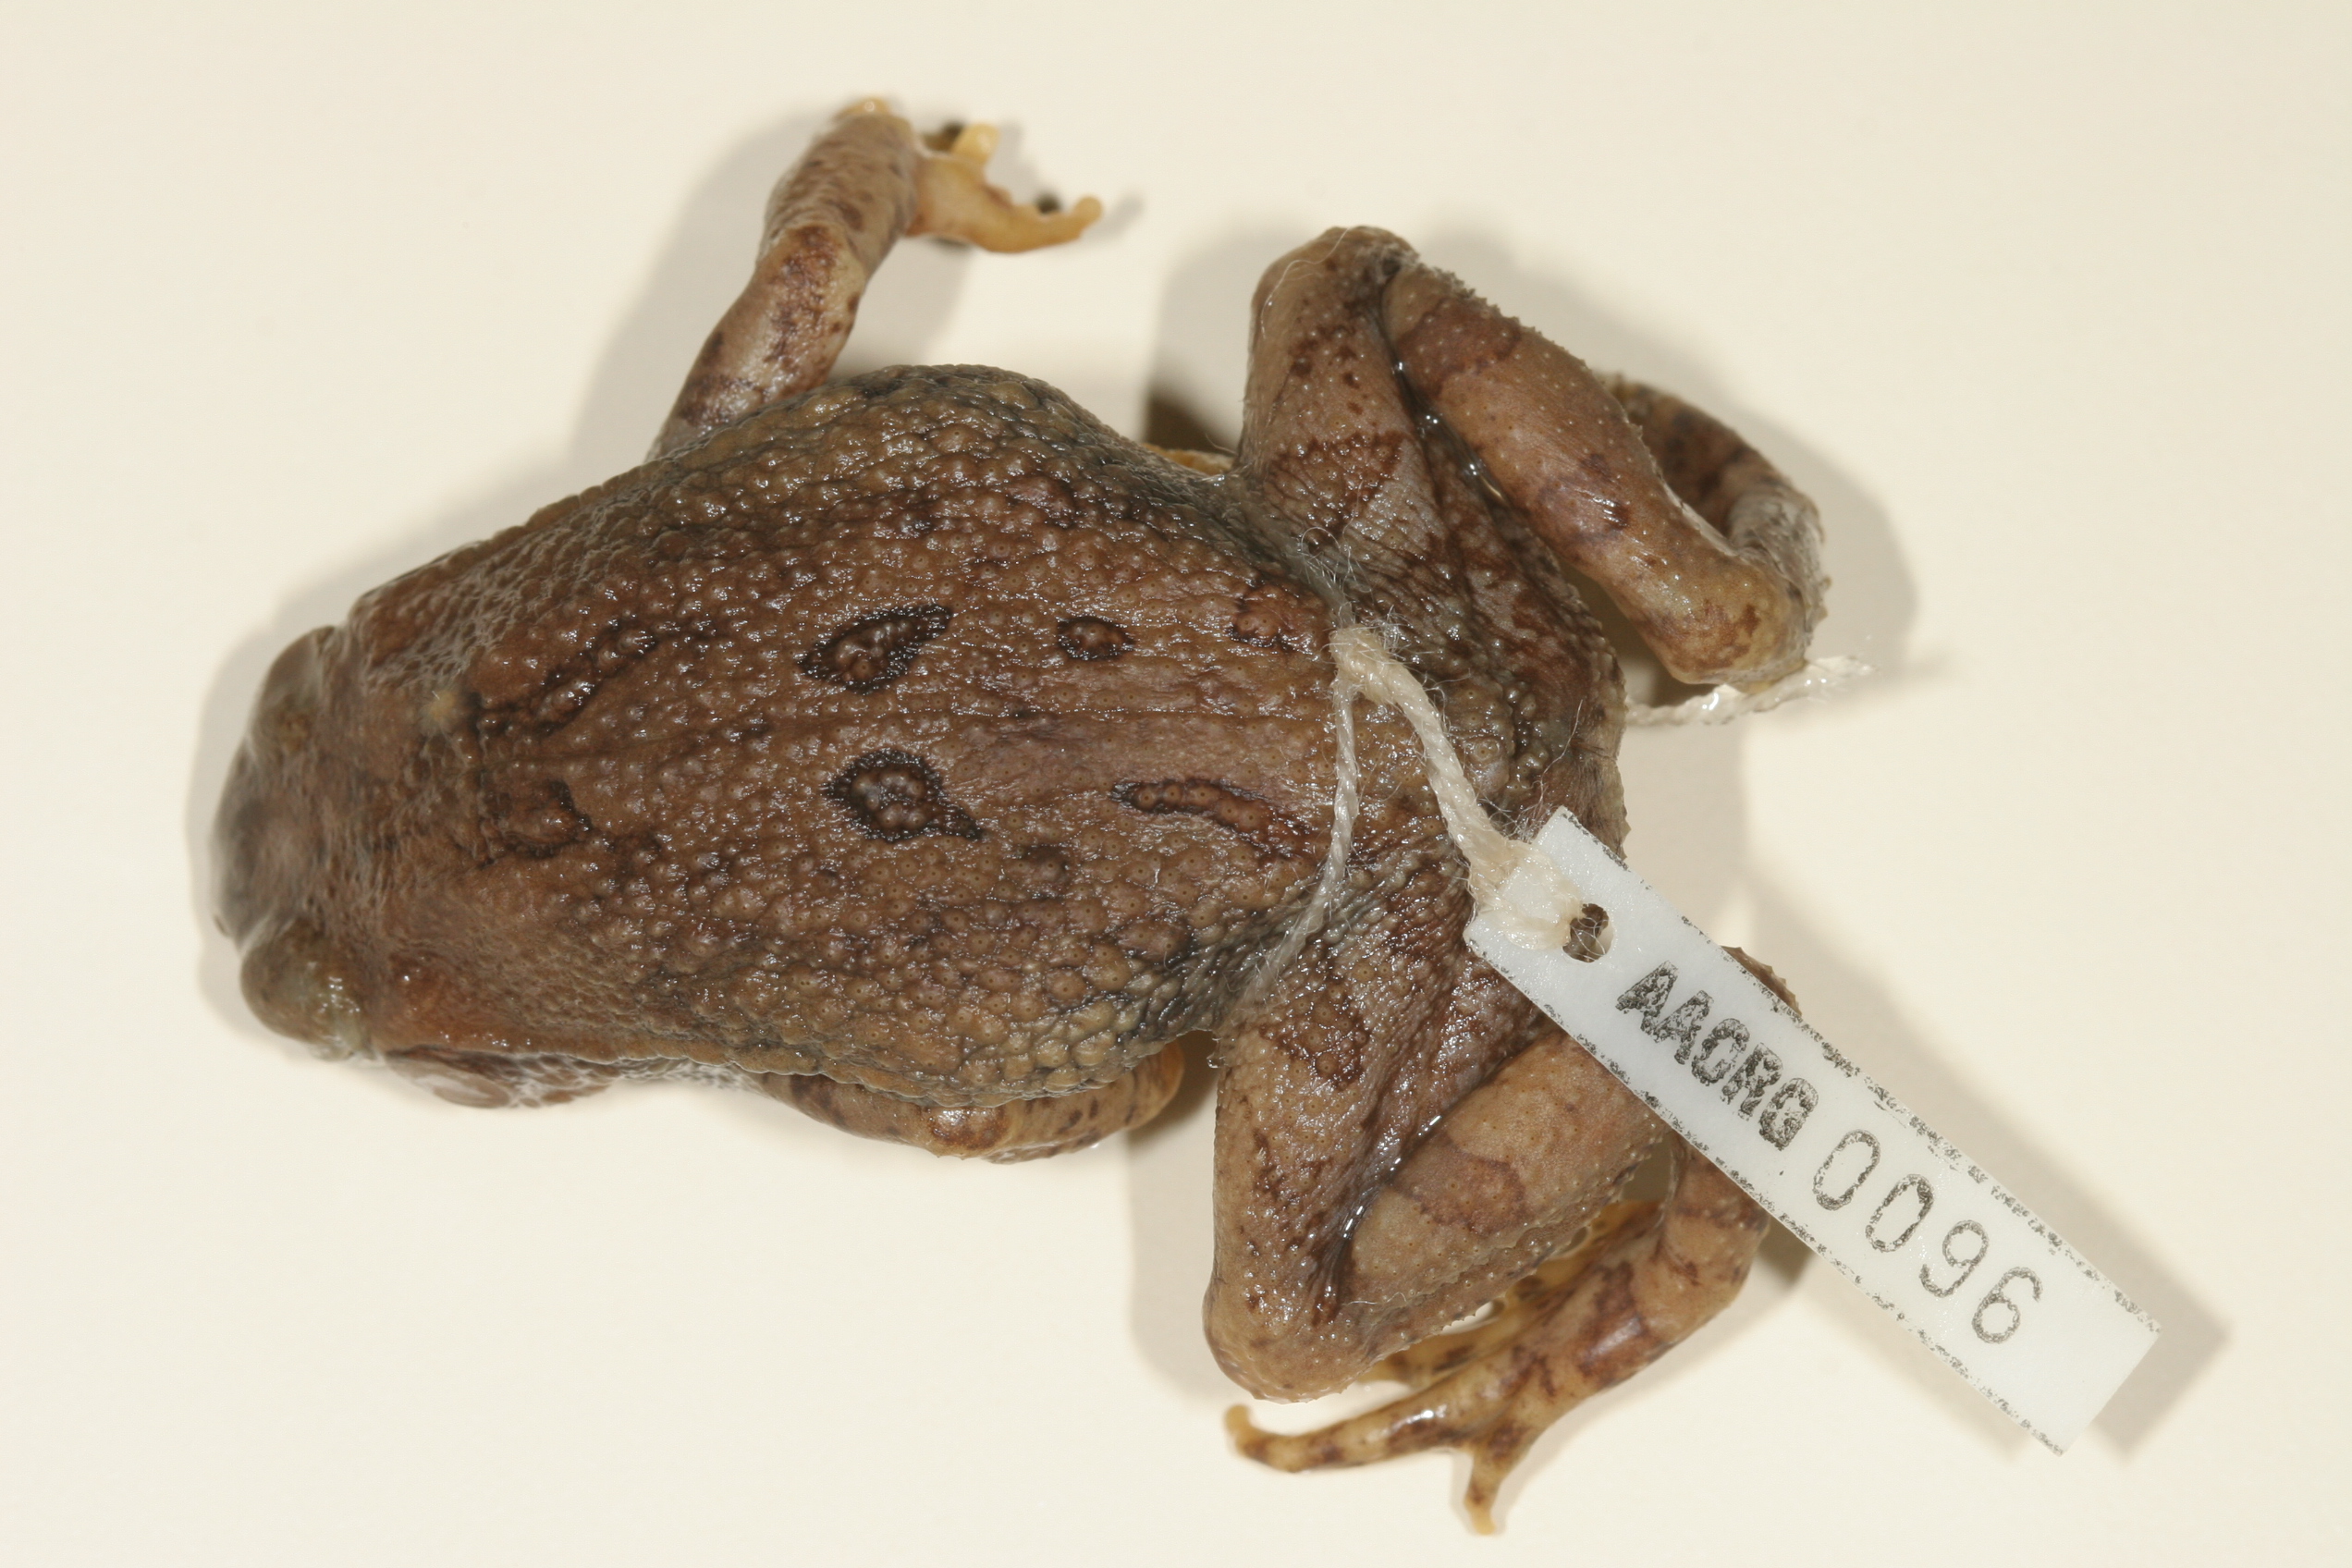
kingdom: Animalia
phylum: Chordata
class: Amphibia
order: Anura
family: Bufonidae
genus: Schismaderma
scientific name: Schismaderma carens
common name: African split-skin toad
